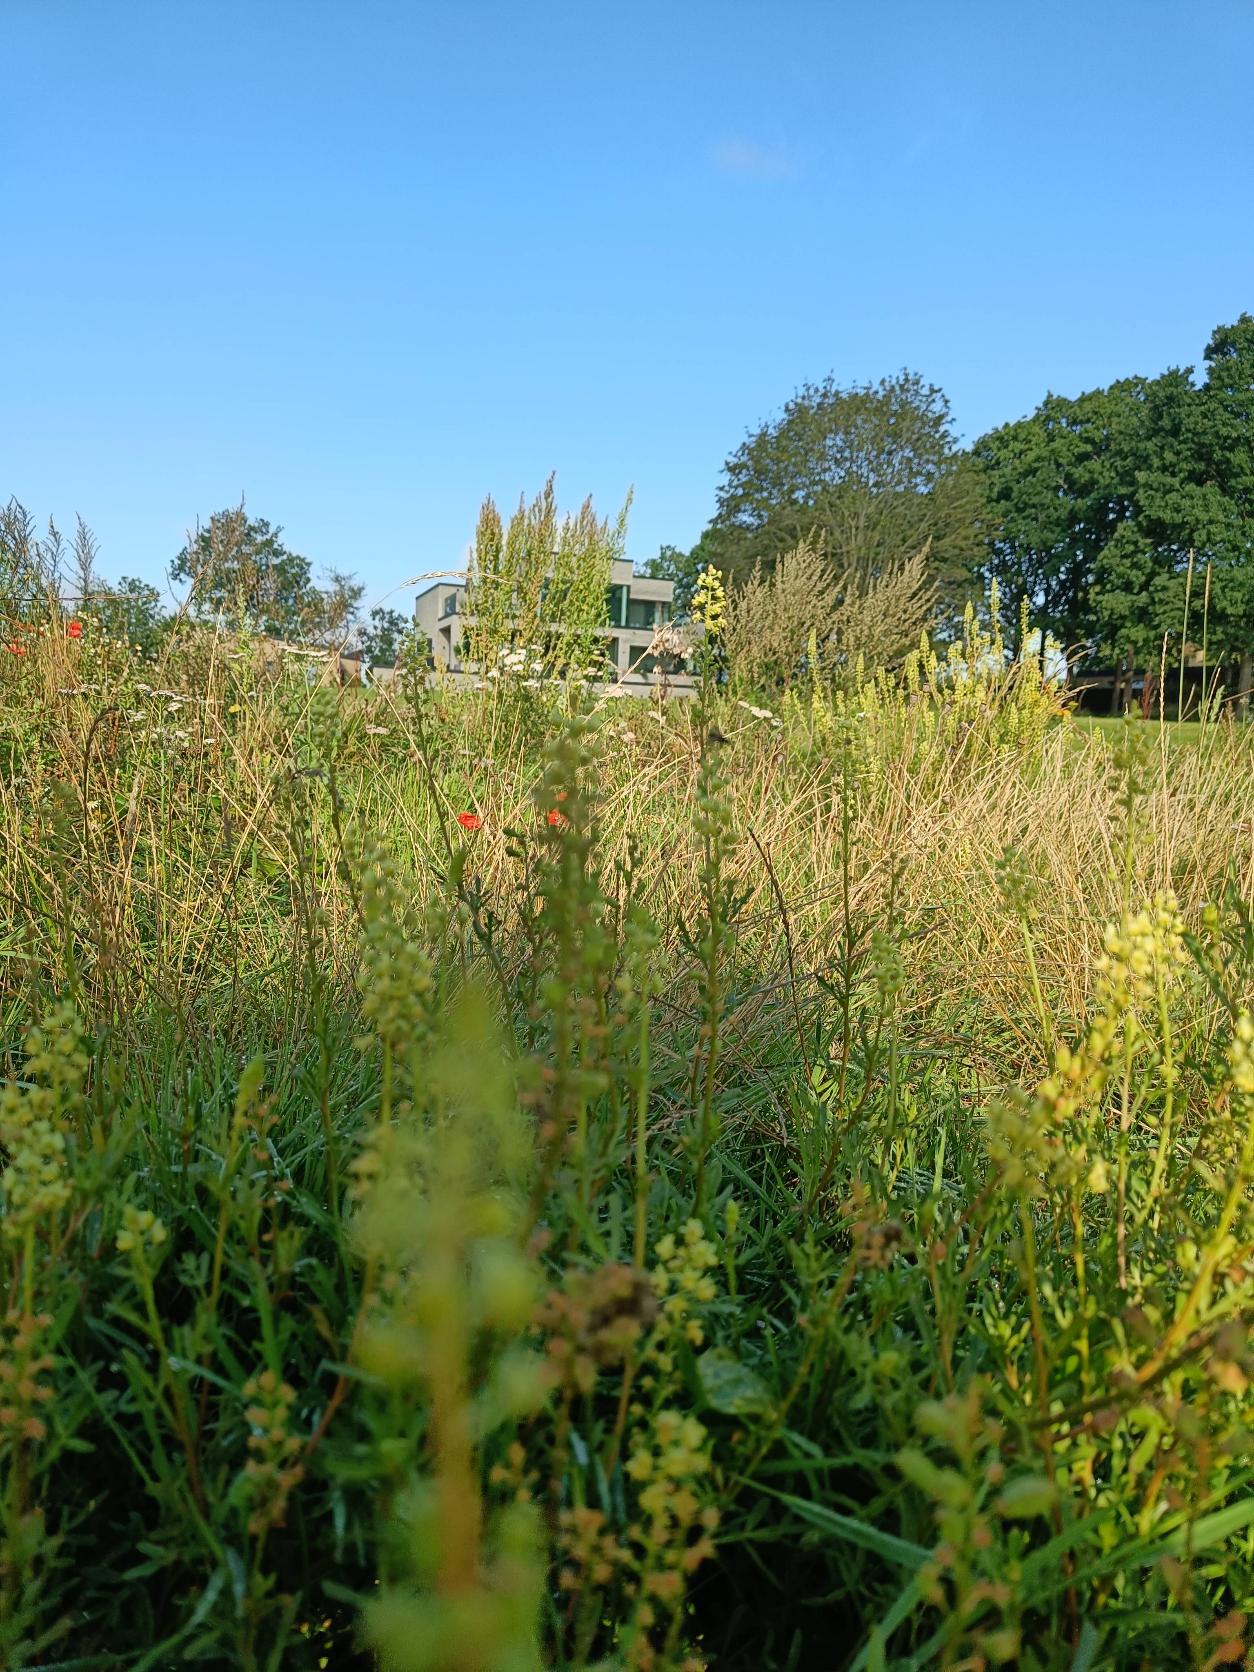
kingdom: Plantae
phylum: Tracheophyta
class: Magnoliopsida
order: Brassicales
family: Resedaceae
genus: Reseda
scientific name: Reseda lutea
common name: Gul reseda
